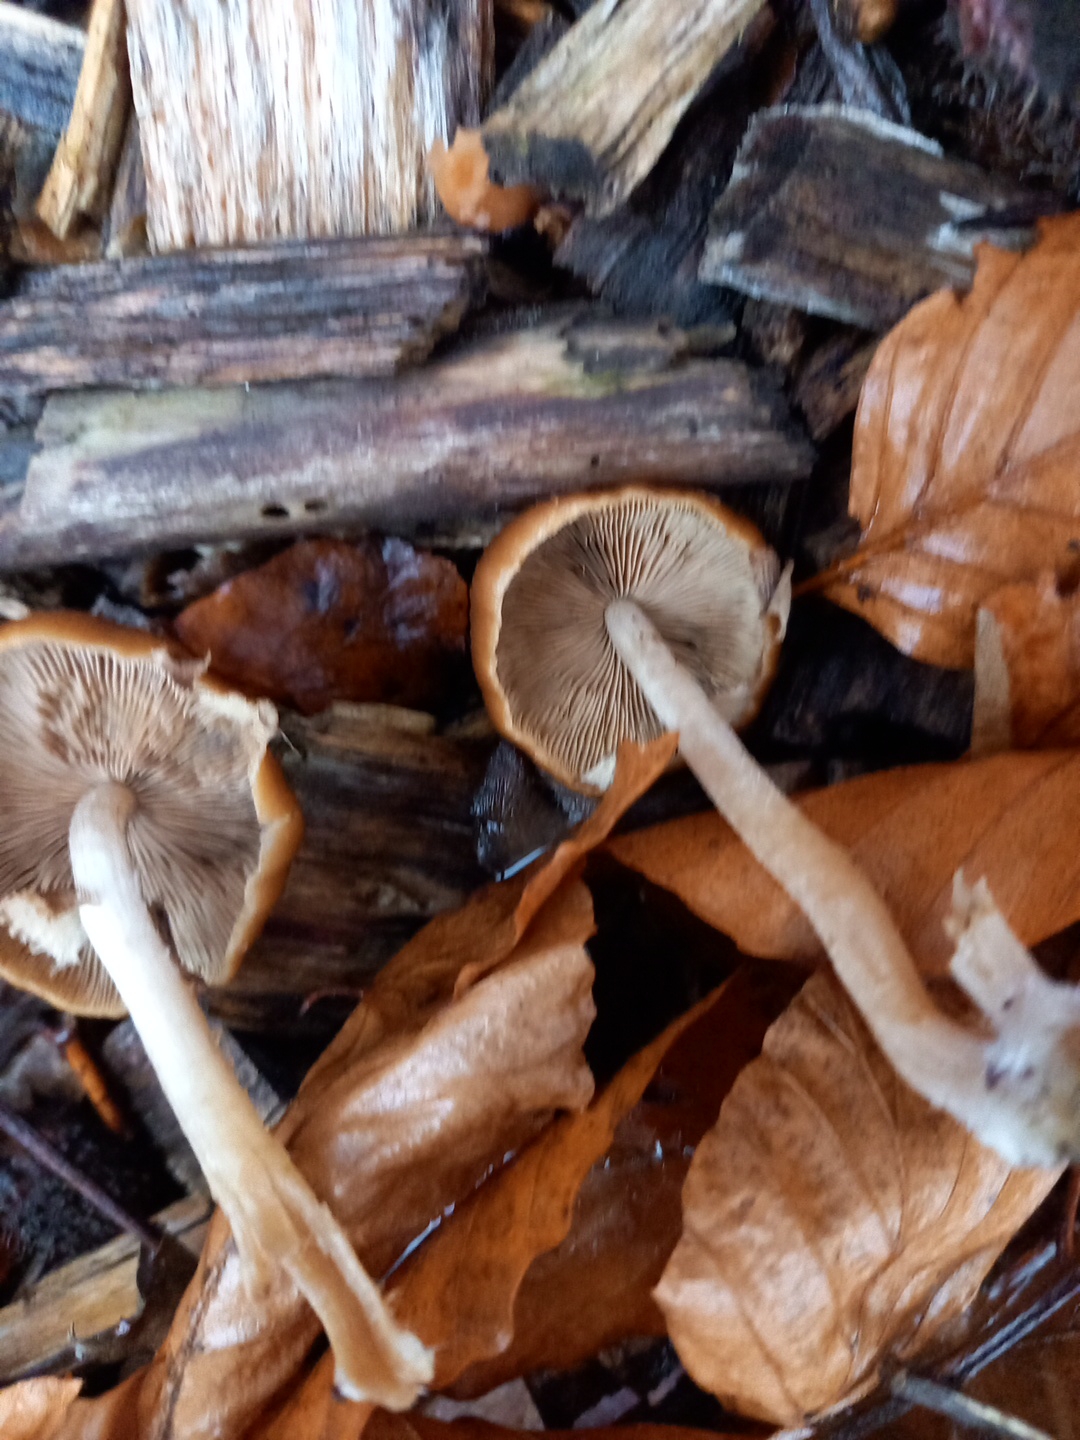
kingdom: Fungi
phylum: Basidiomycota
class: Agaricomycetes
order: Agaricales
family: Psathyrellaceae
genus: Psathyrella
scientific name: Psathyrella piluliformis
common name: lysstokket mørkhat
